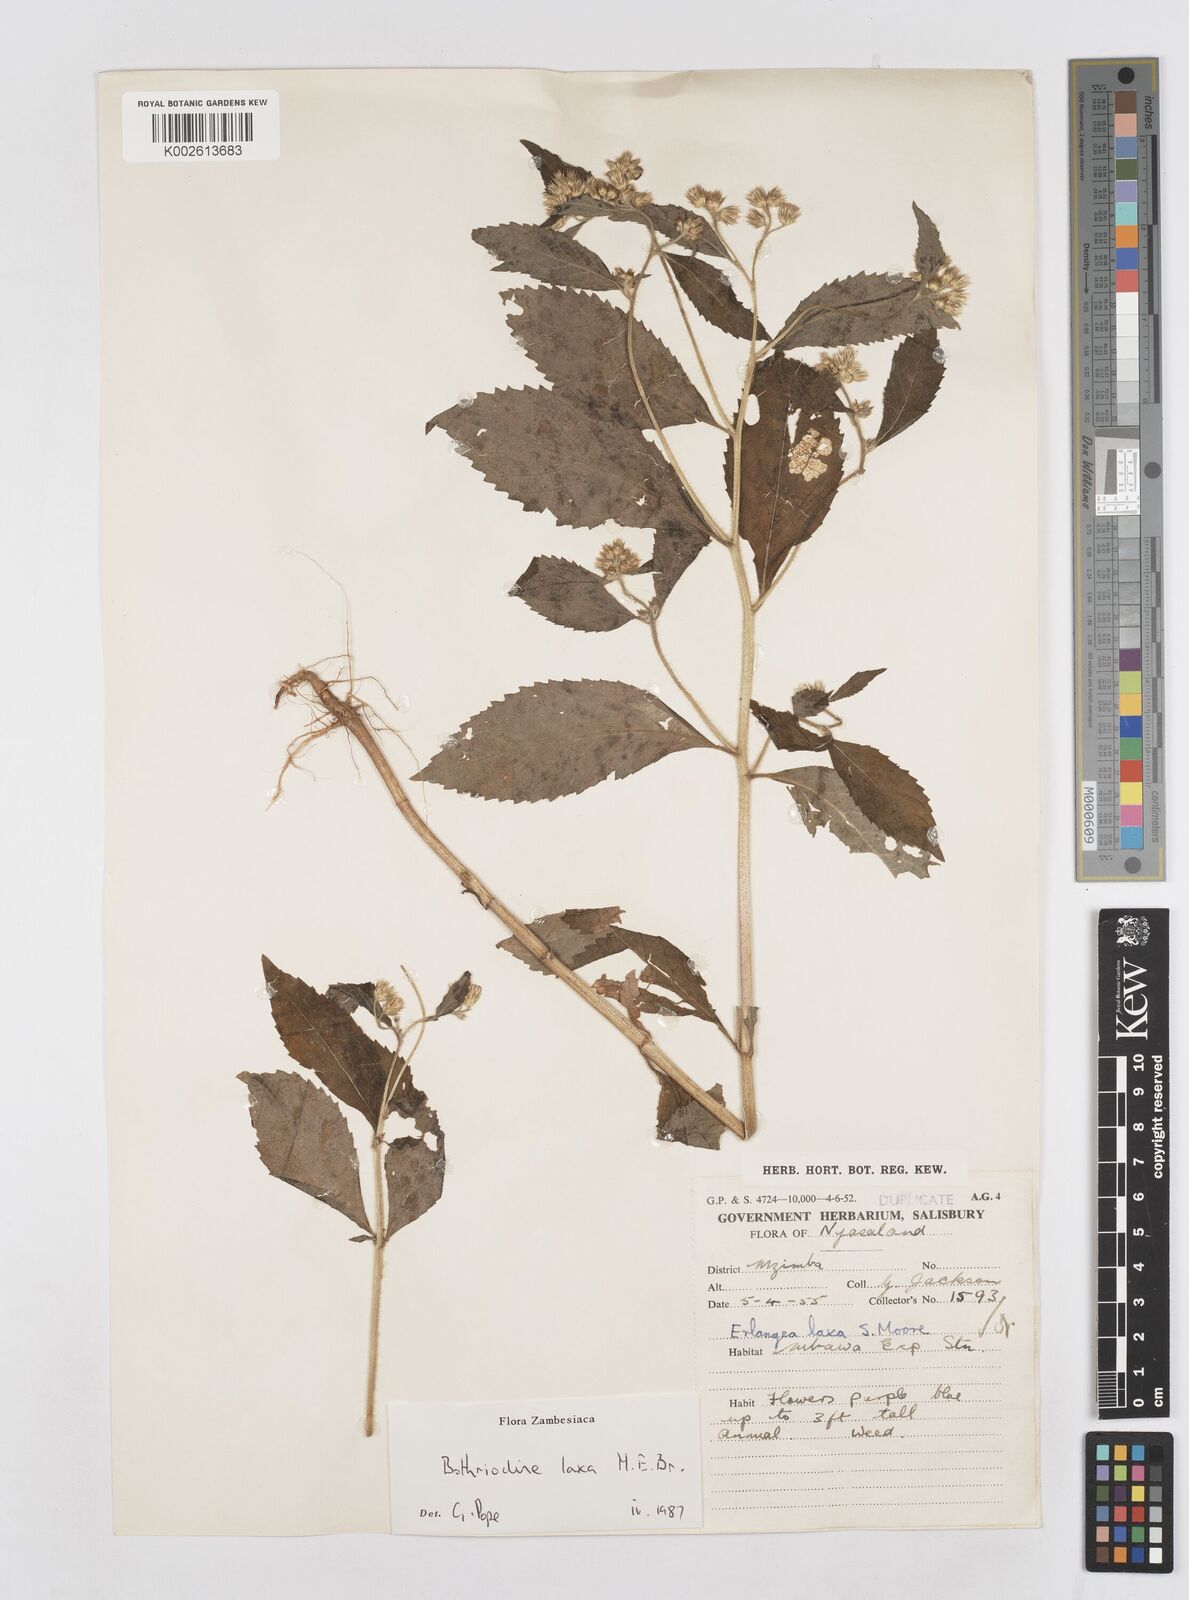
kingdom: Plantae
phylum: Tracheophyta
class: Magnoliopsida
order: Asterales
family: Asteraceae
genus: Bothriocline
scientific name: Bothriocline laxa
